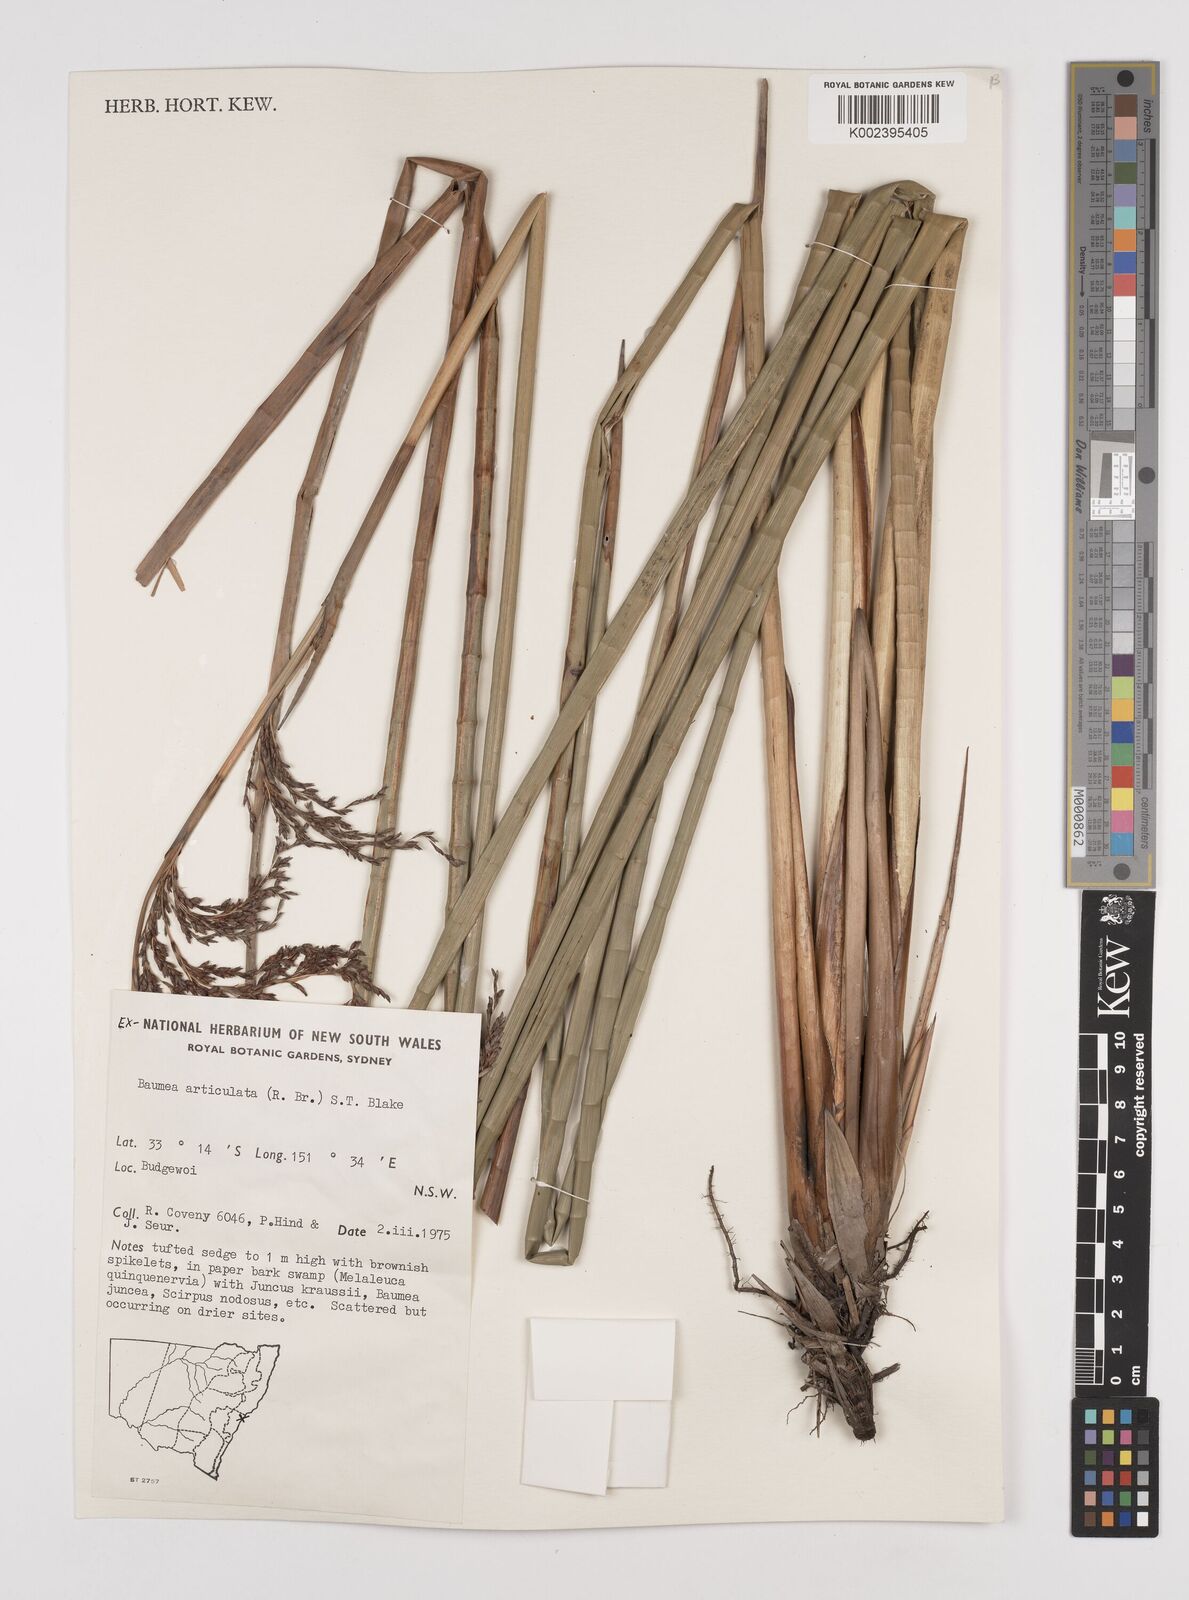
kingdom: Plantae
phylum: Tracheophyta
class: Liliopsida
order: Poales
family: Cyperaceae
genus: Machaerina
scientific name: Machaerina articulata
